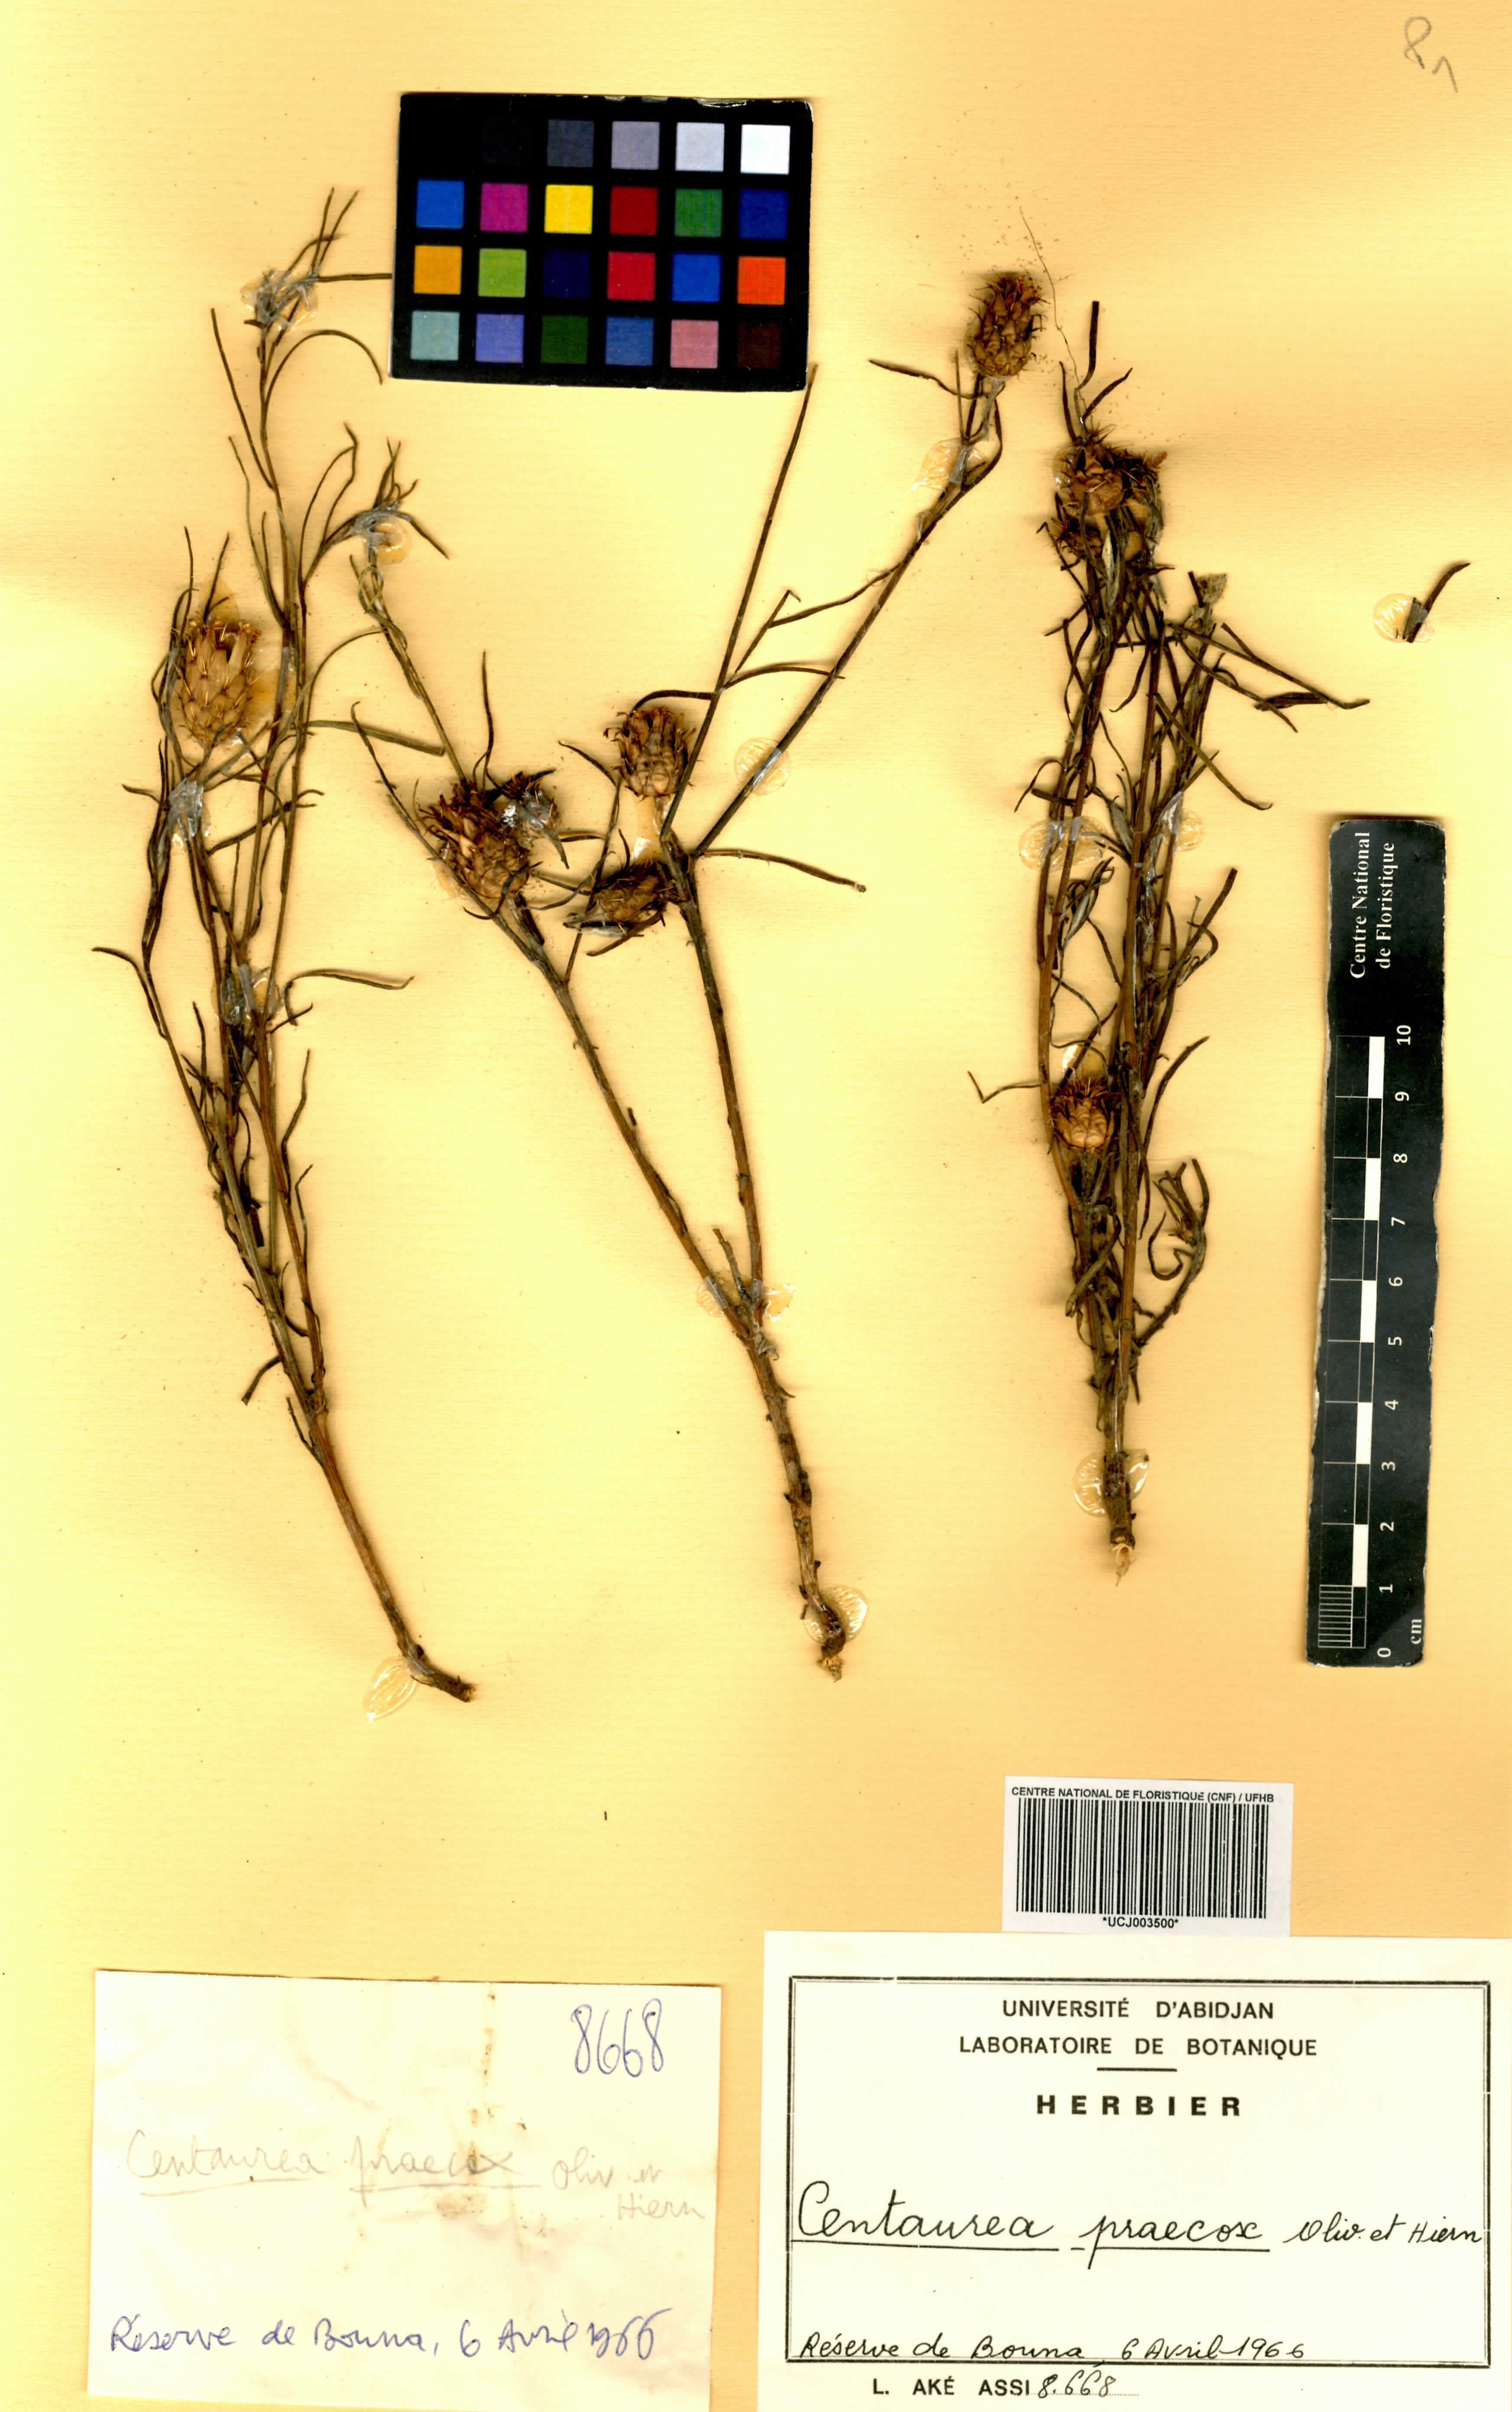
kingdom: Plantae
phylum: Tracheophyta
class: Magnoliopsida
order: Asterales
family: Asteraceae
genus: Centaurea
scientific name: Centaurea praecox
